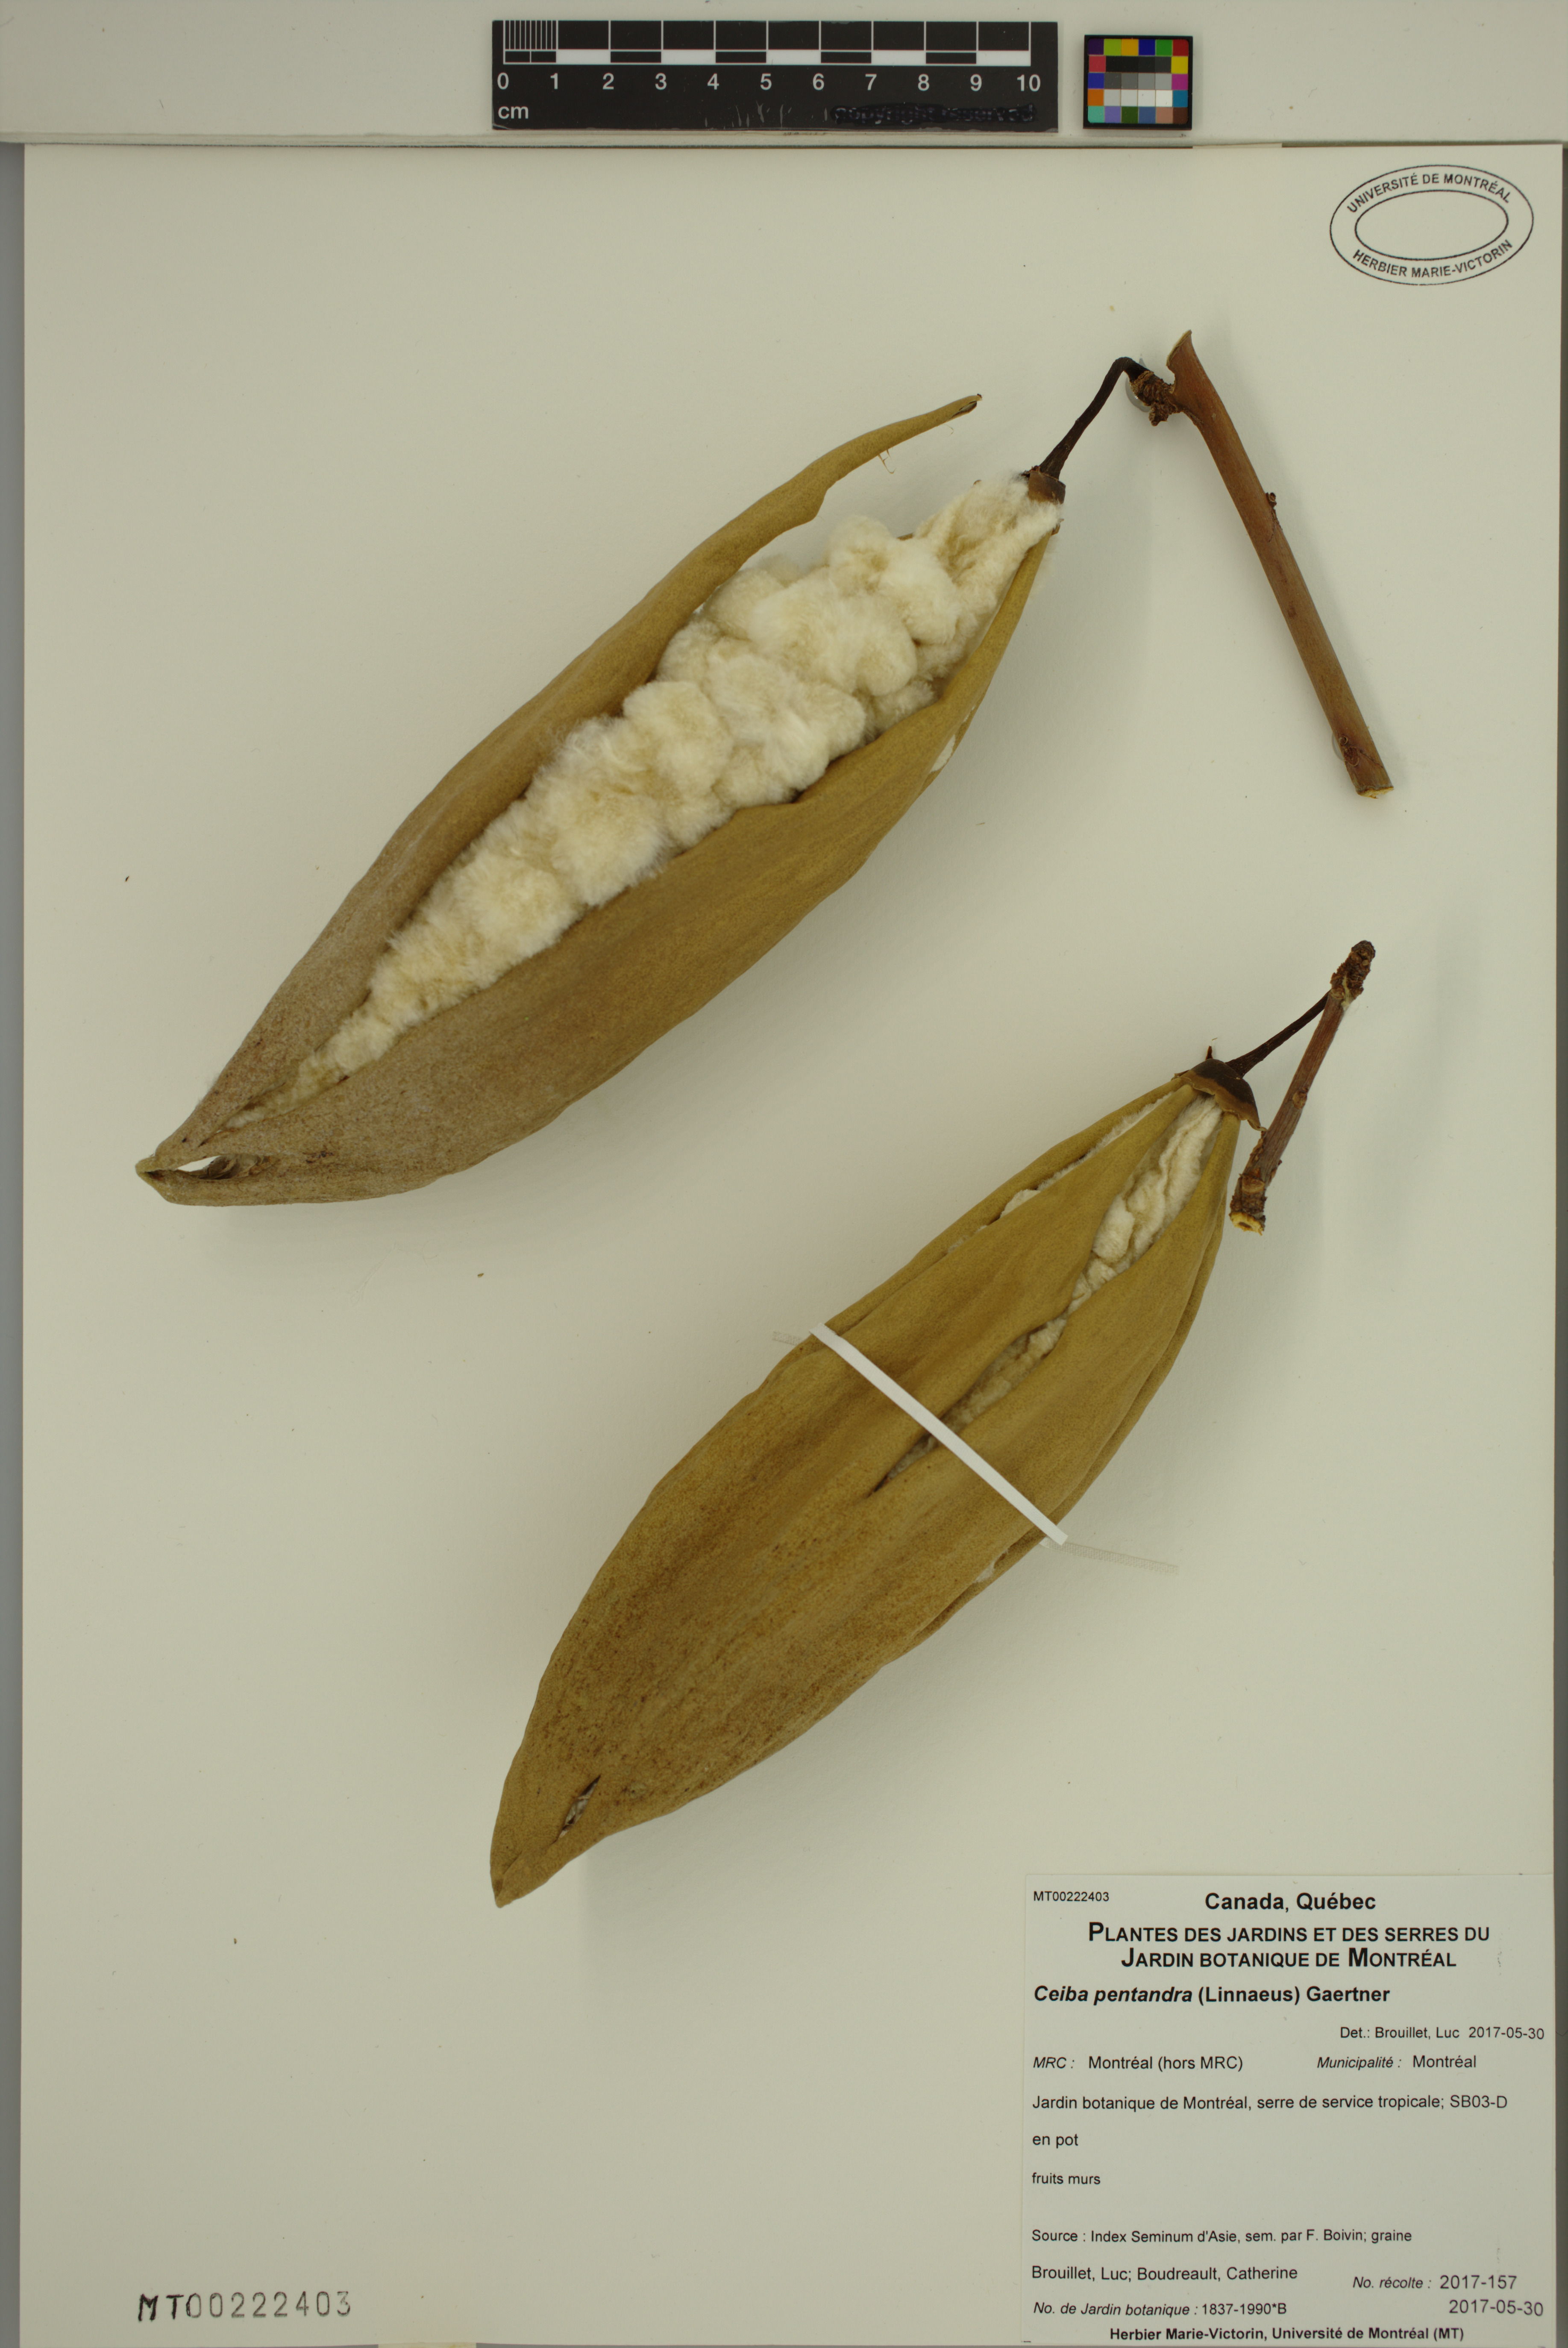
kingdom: Plantae
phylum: Tracheophyta
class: Magnoliopsida
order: Malvales
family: Malvaceae
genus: Ceiba
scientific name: Ceiba pentandra
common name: Kapok
